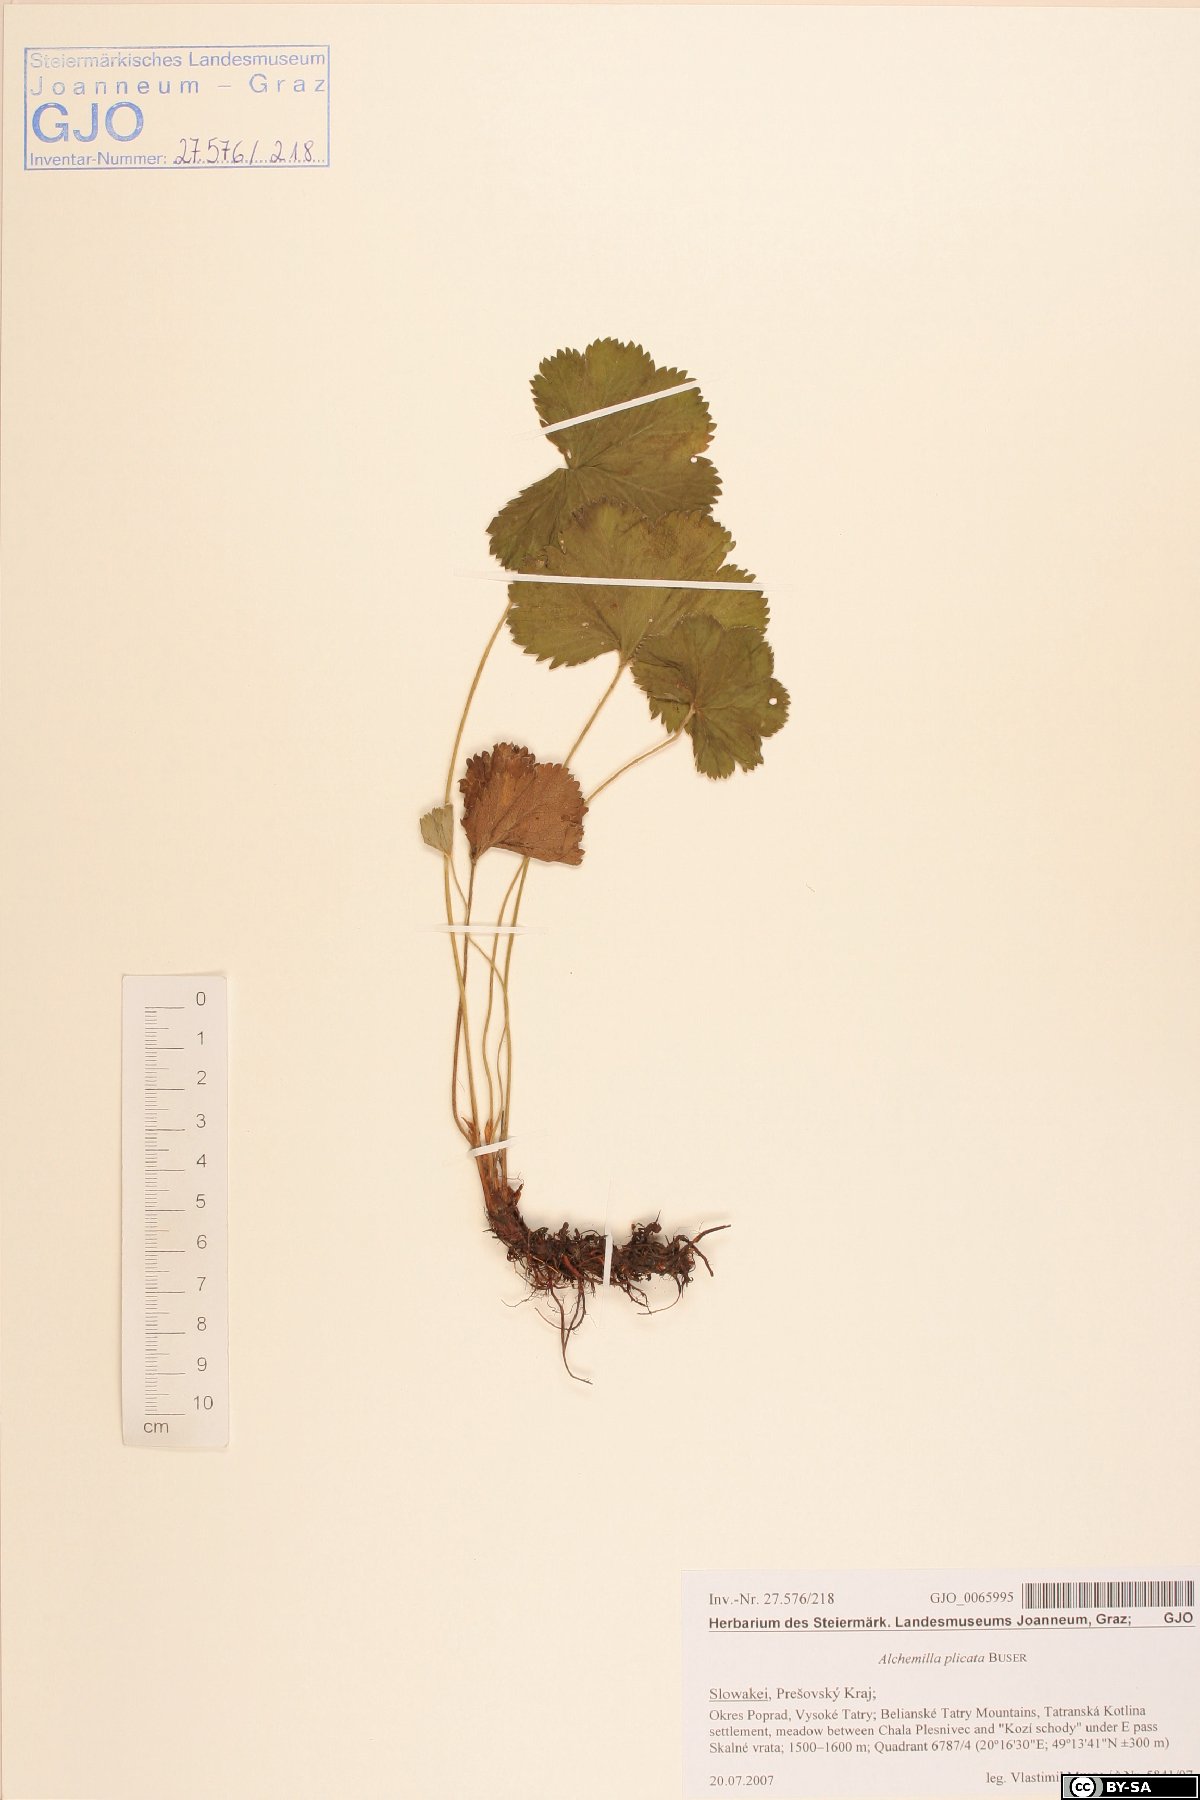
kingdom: Plantae
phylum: Tracheophyta
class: Magnoliopsida
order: Rosales
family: Rosaceae
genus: Alchemilla
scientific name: Alchemilla plicata
